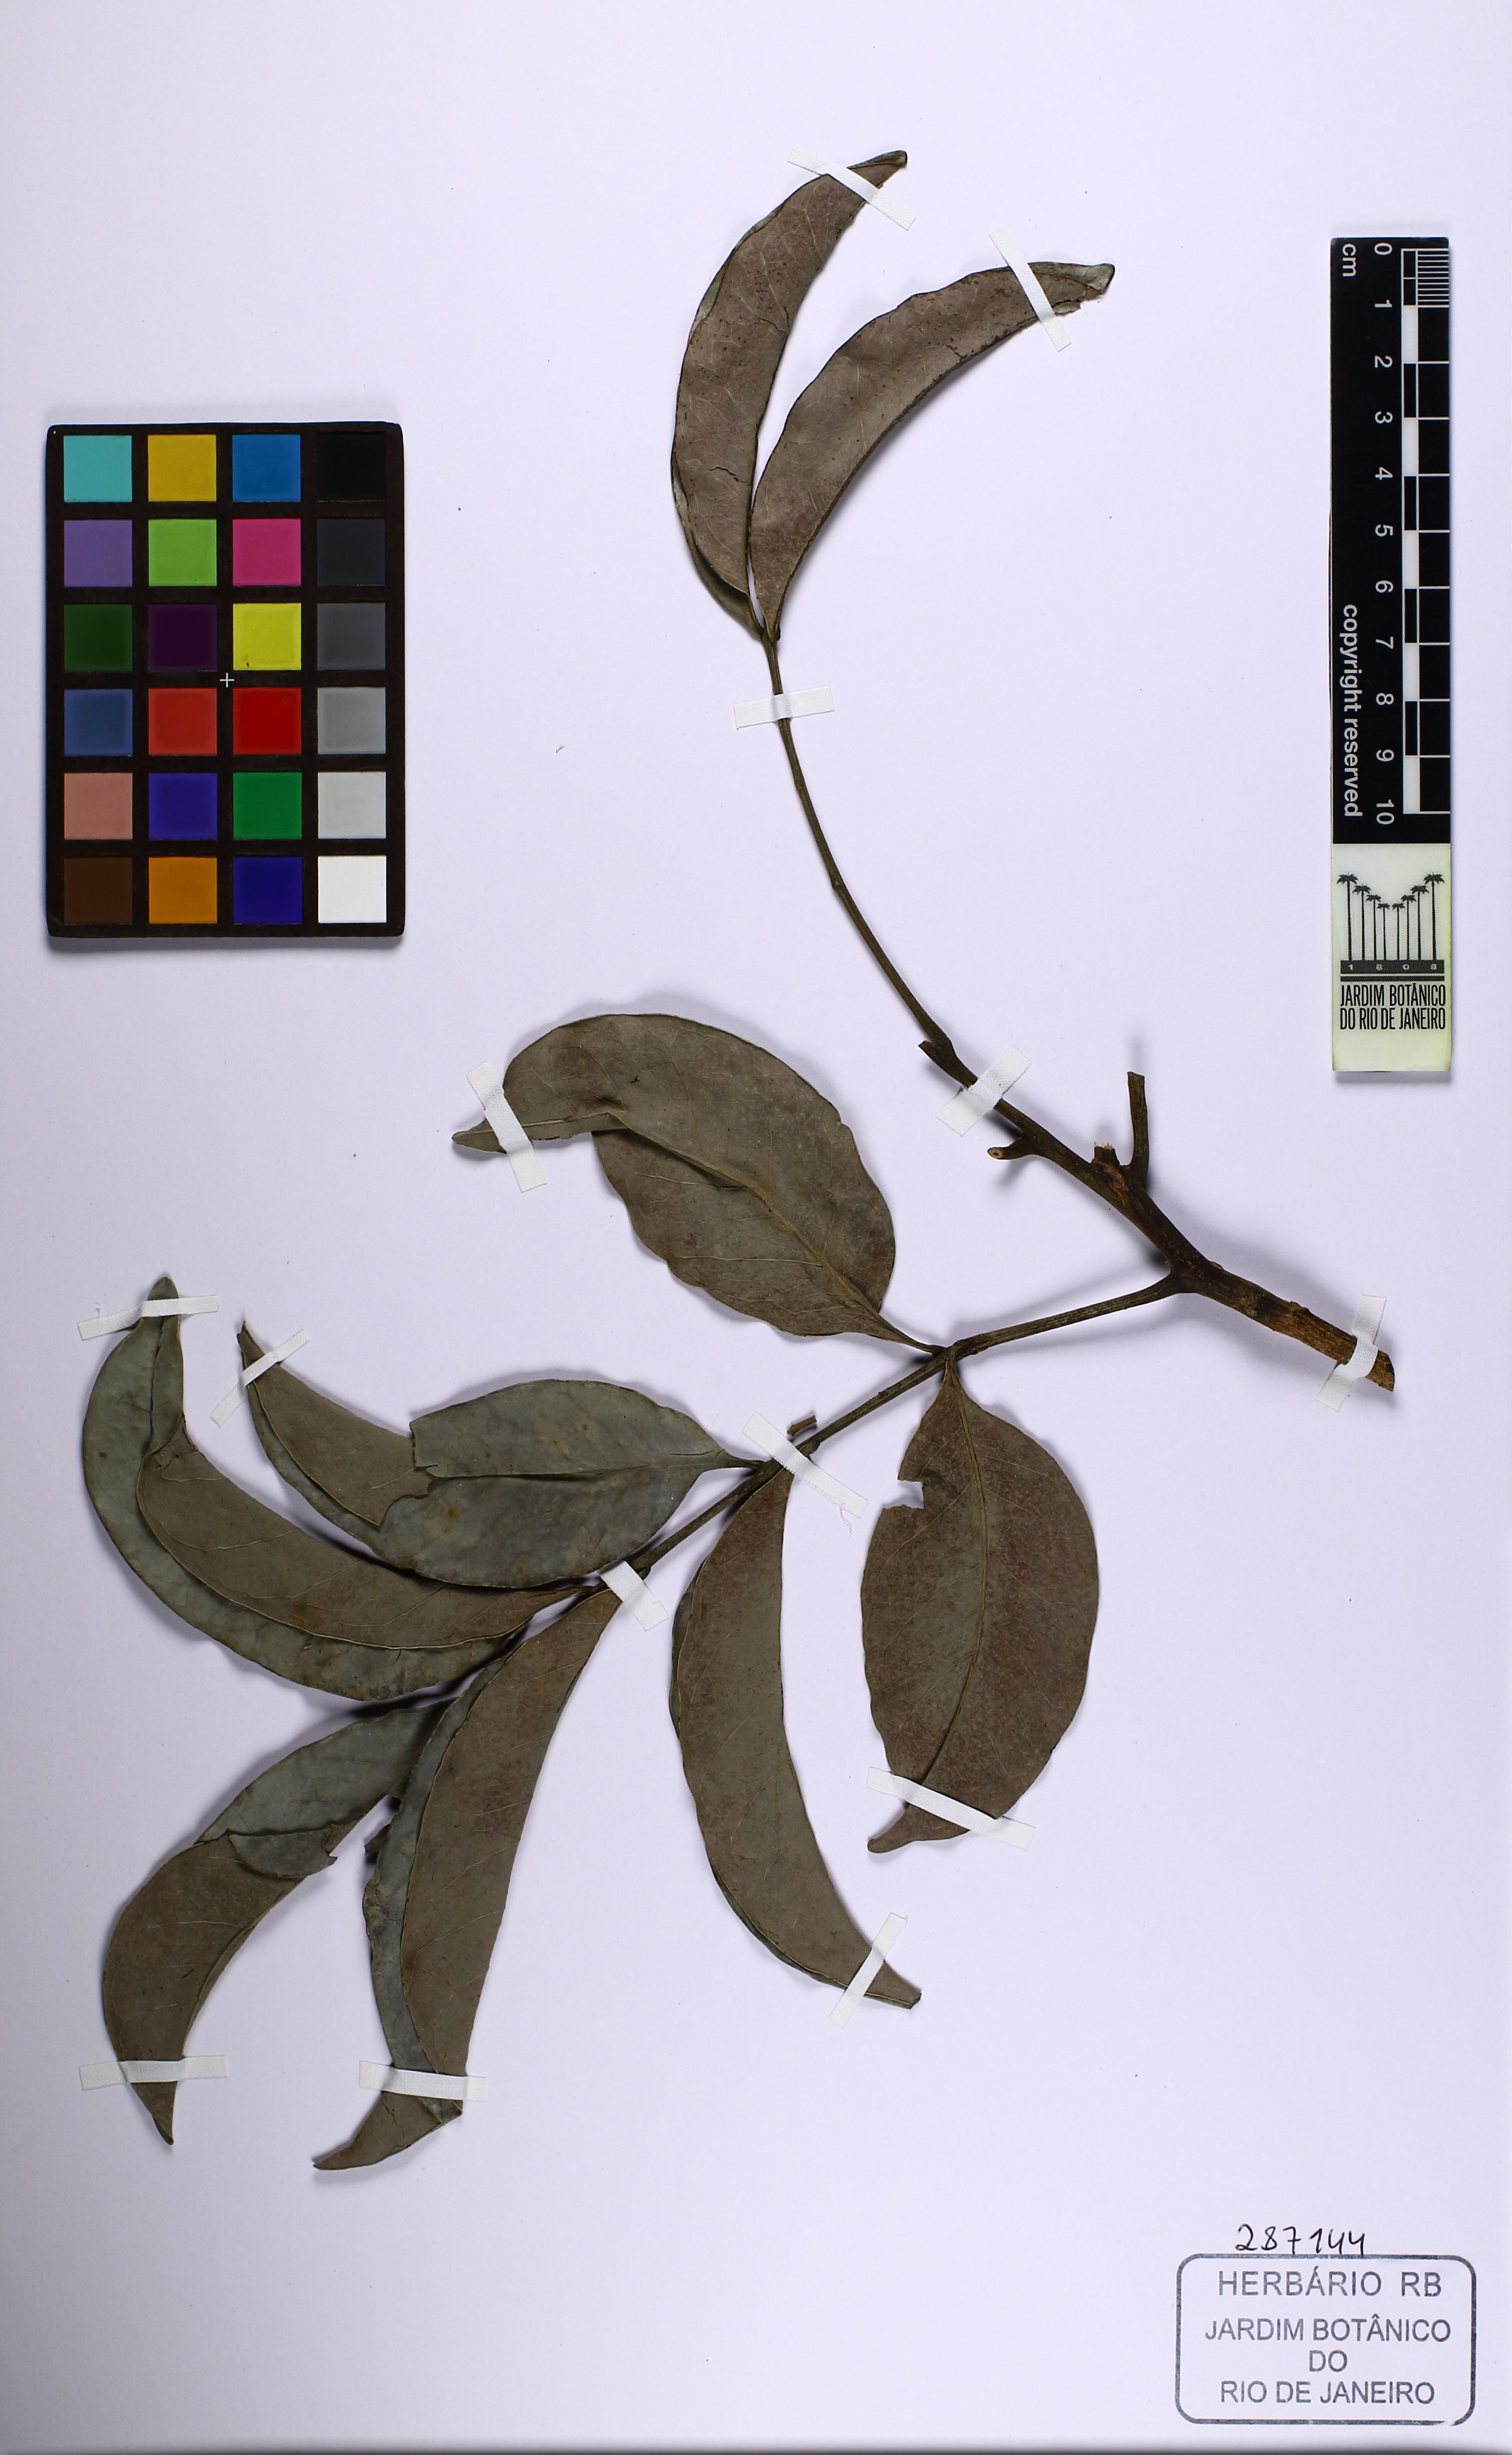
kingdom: Plantae
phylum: Tracheophyta
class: Magnoliopsida
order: Sapindales
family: Sapindaceae
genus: Matayba
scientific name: Matayba livescens
